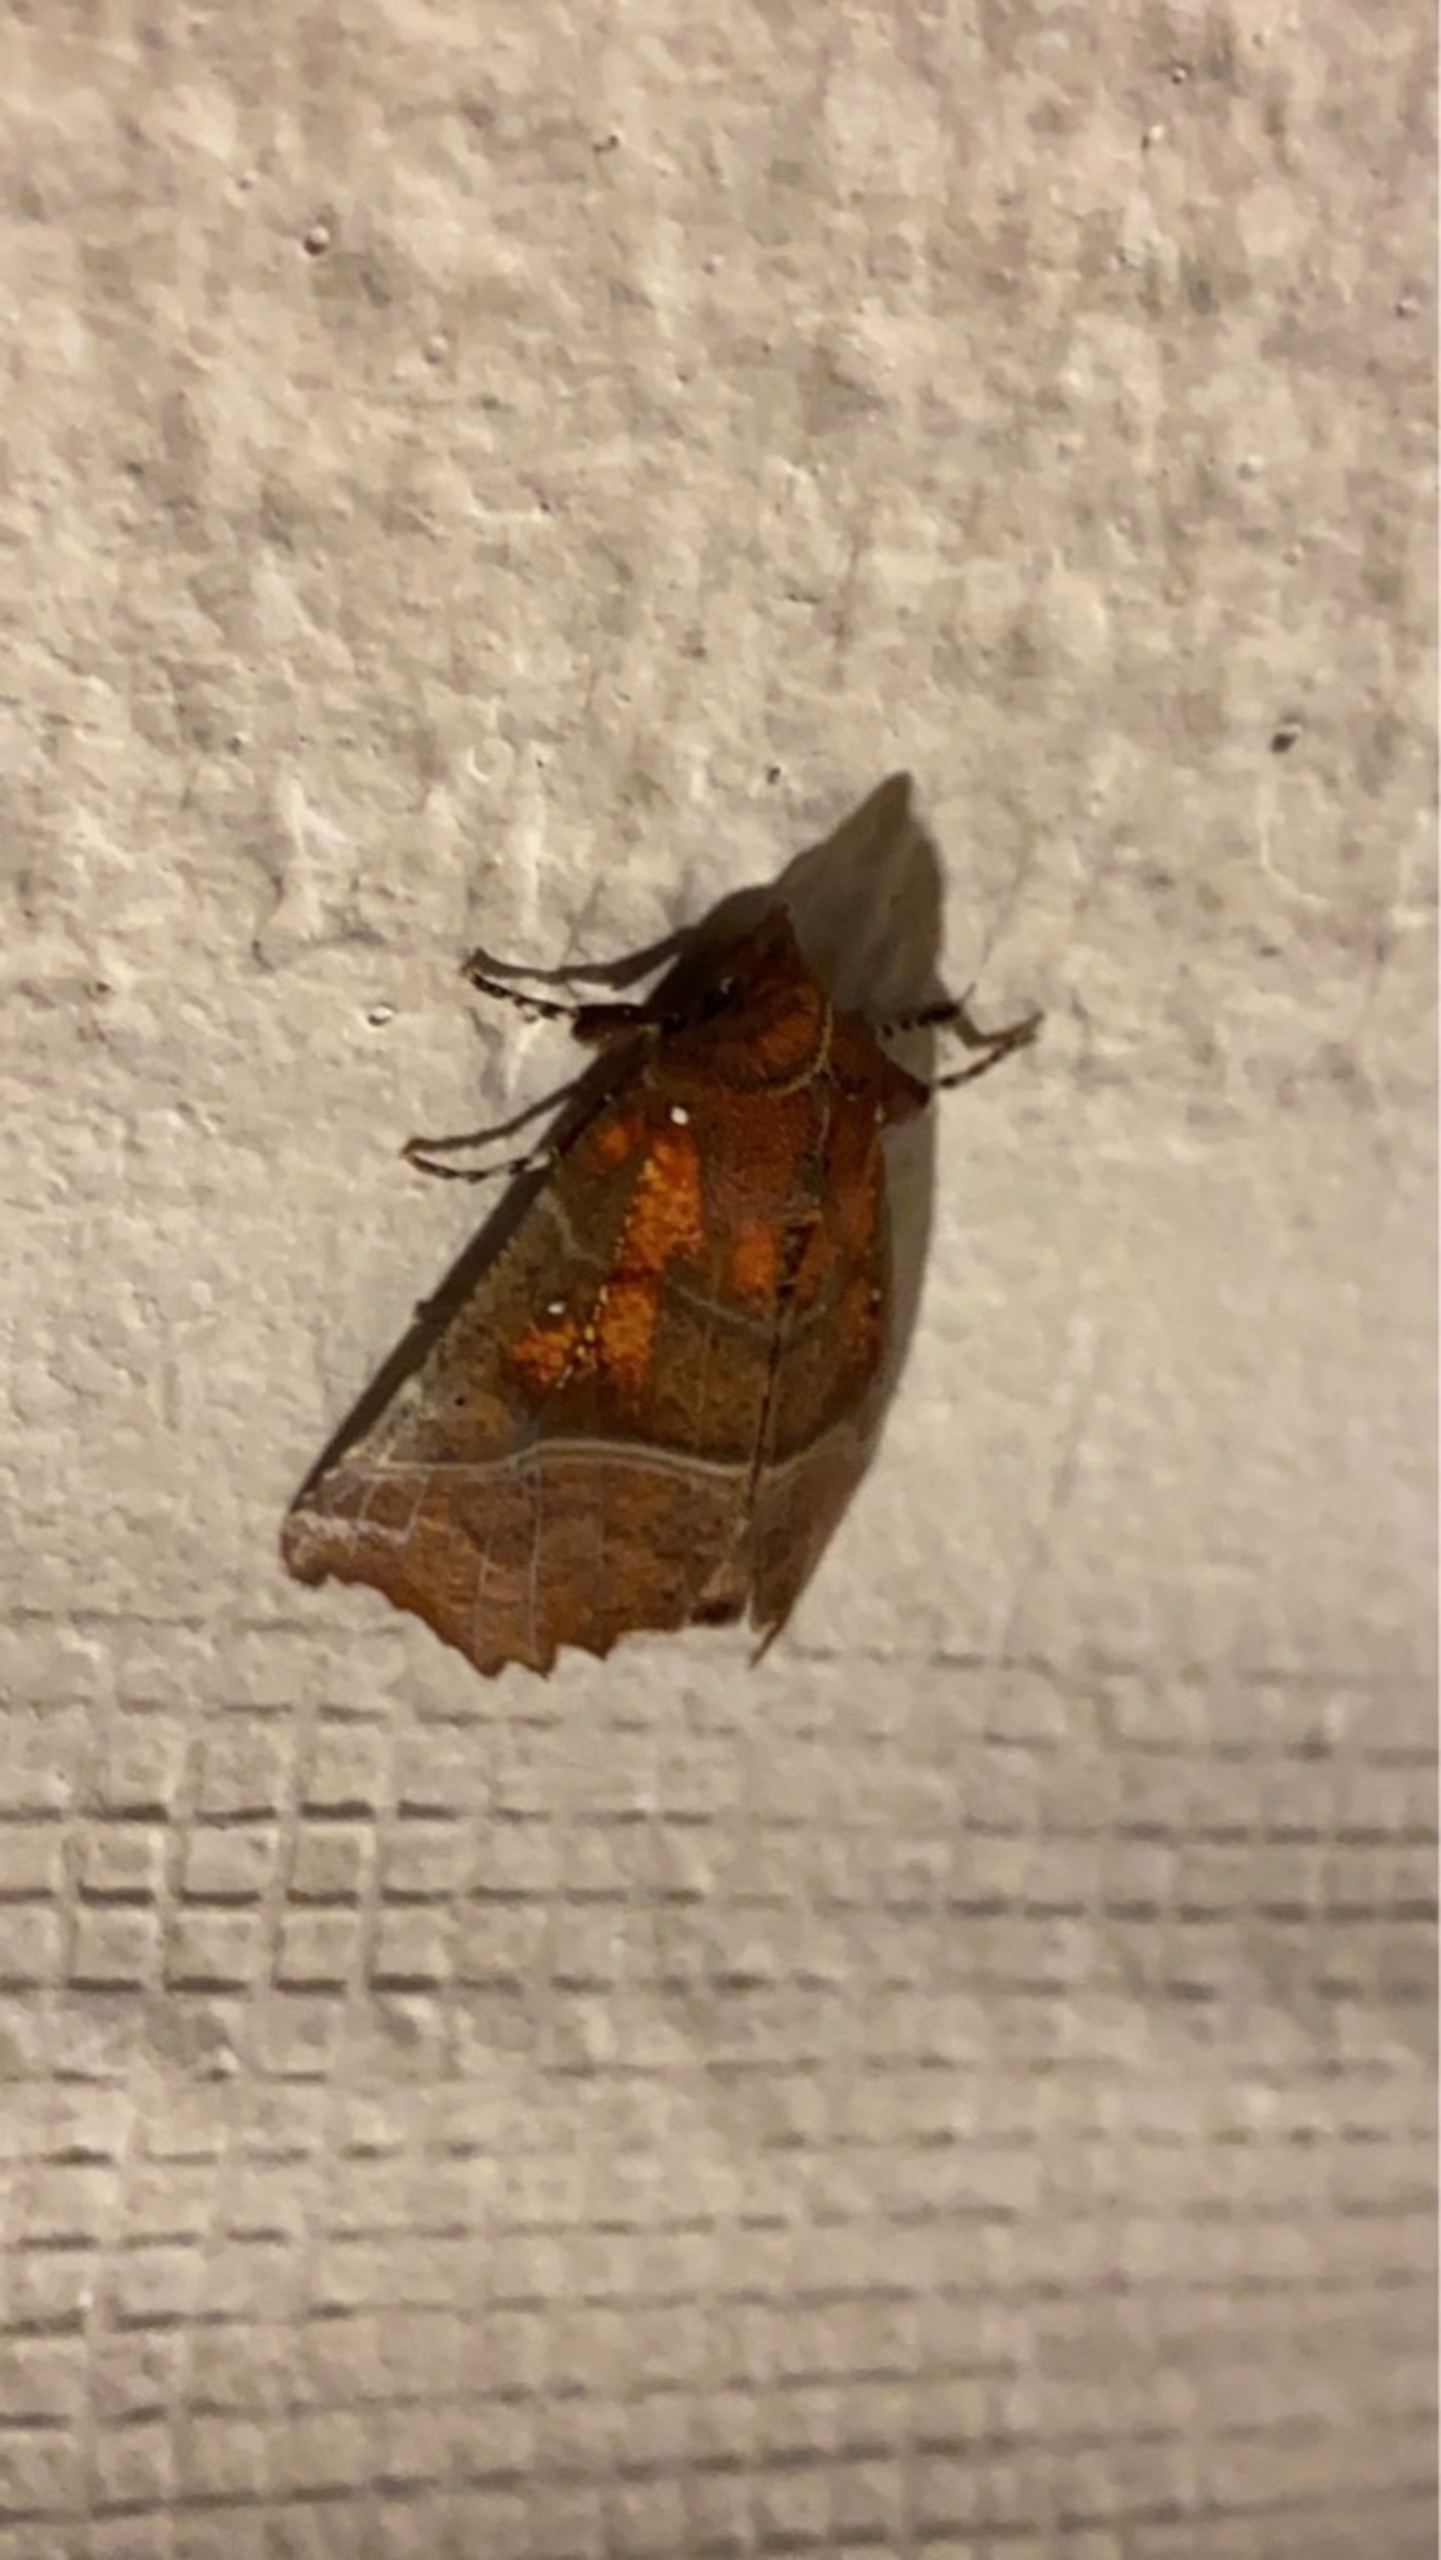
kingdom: Animalia
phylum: Arthropoda
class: Insecta
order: Lepidoptera
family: Erebidae
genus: Scoliopteryx
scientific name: Scoliopteryx libatrix
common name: Husmoderugle
